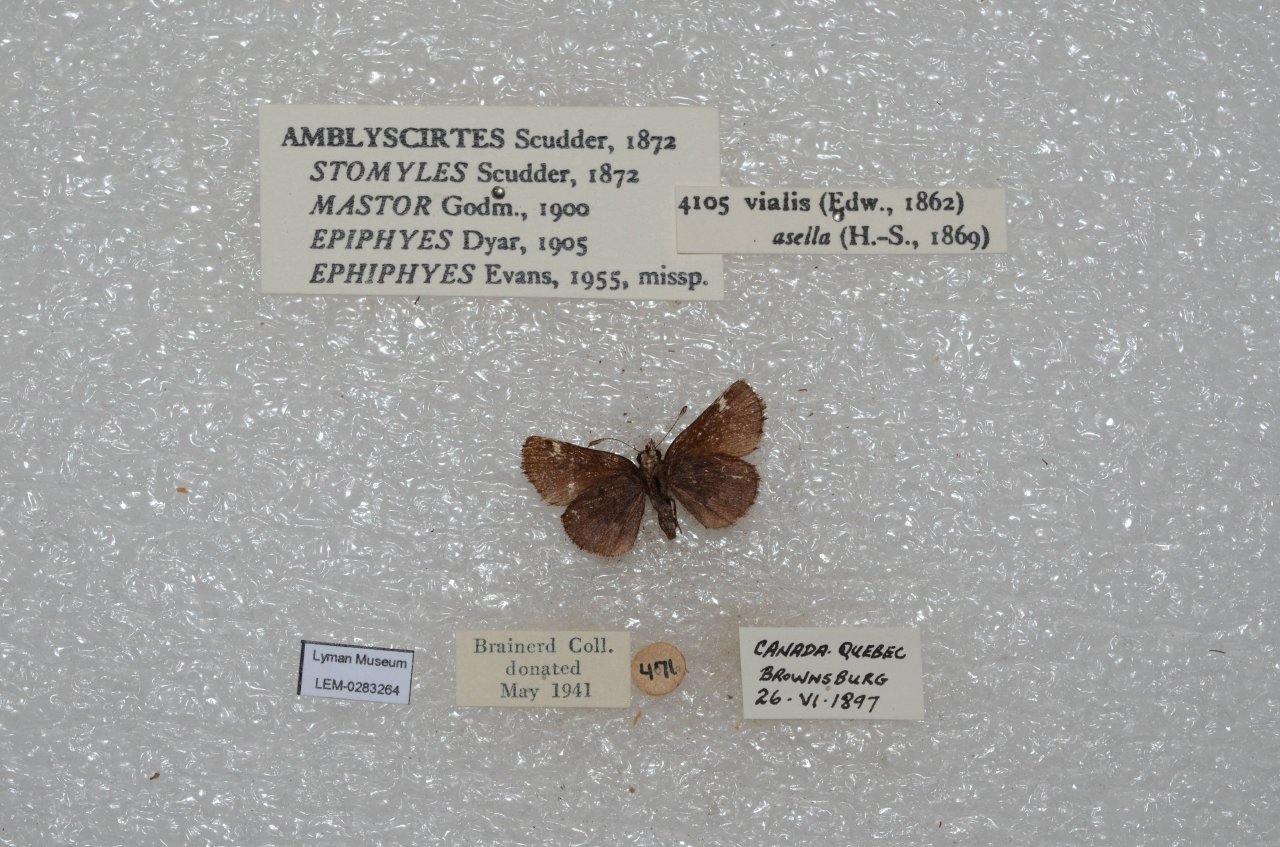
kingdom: Animalia
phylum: Arthropoda
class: Insecta
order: Lepidoptera
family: Hesperiidae
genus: Mastor
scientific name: Mastor vialis
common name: Common Roadside-Skipper
